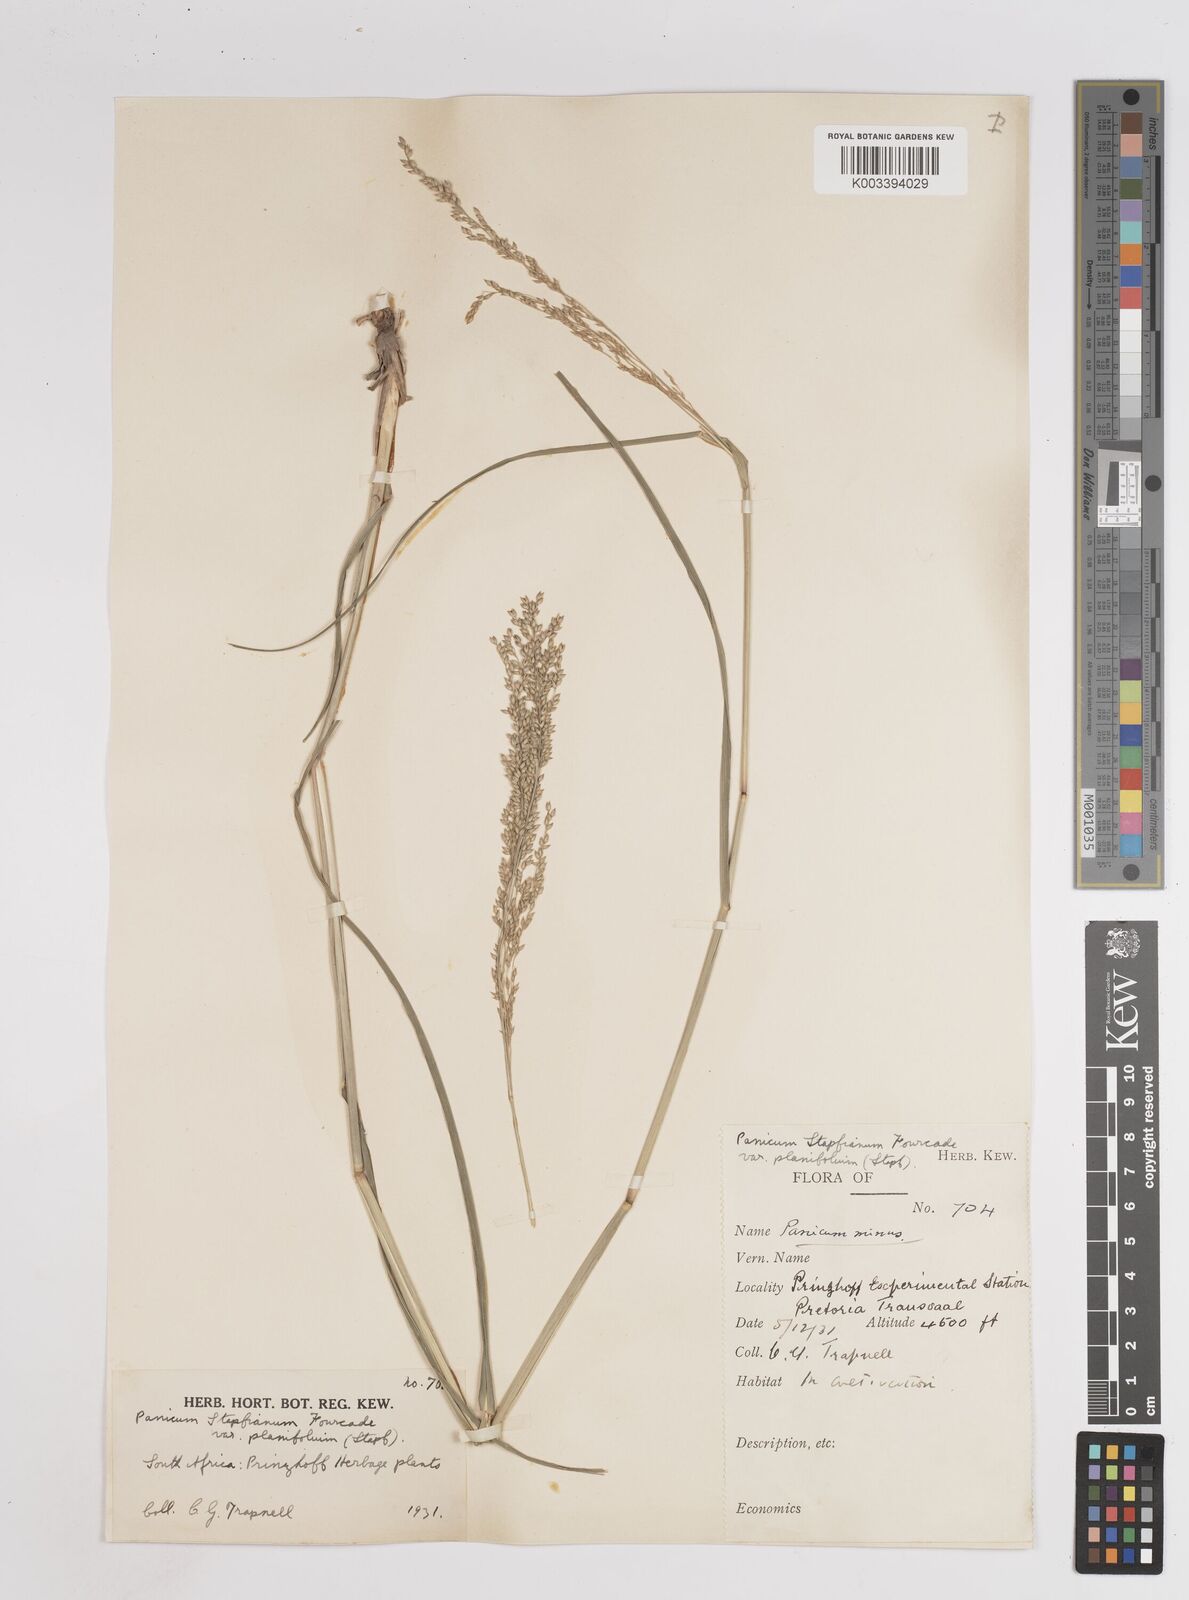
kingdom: Plantae
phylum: Tracheophyta
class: Liliopsida
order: Poales
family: Poaceae
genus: Panicum
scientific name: Panicum
